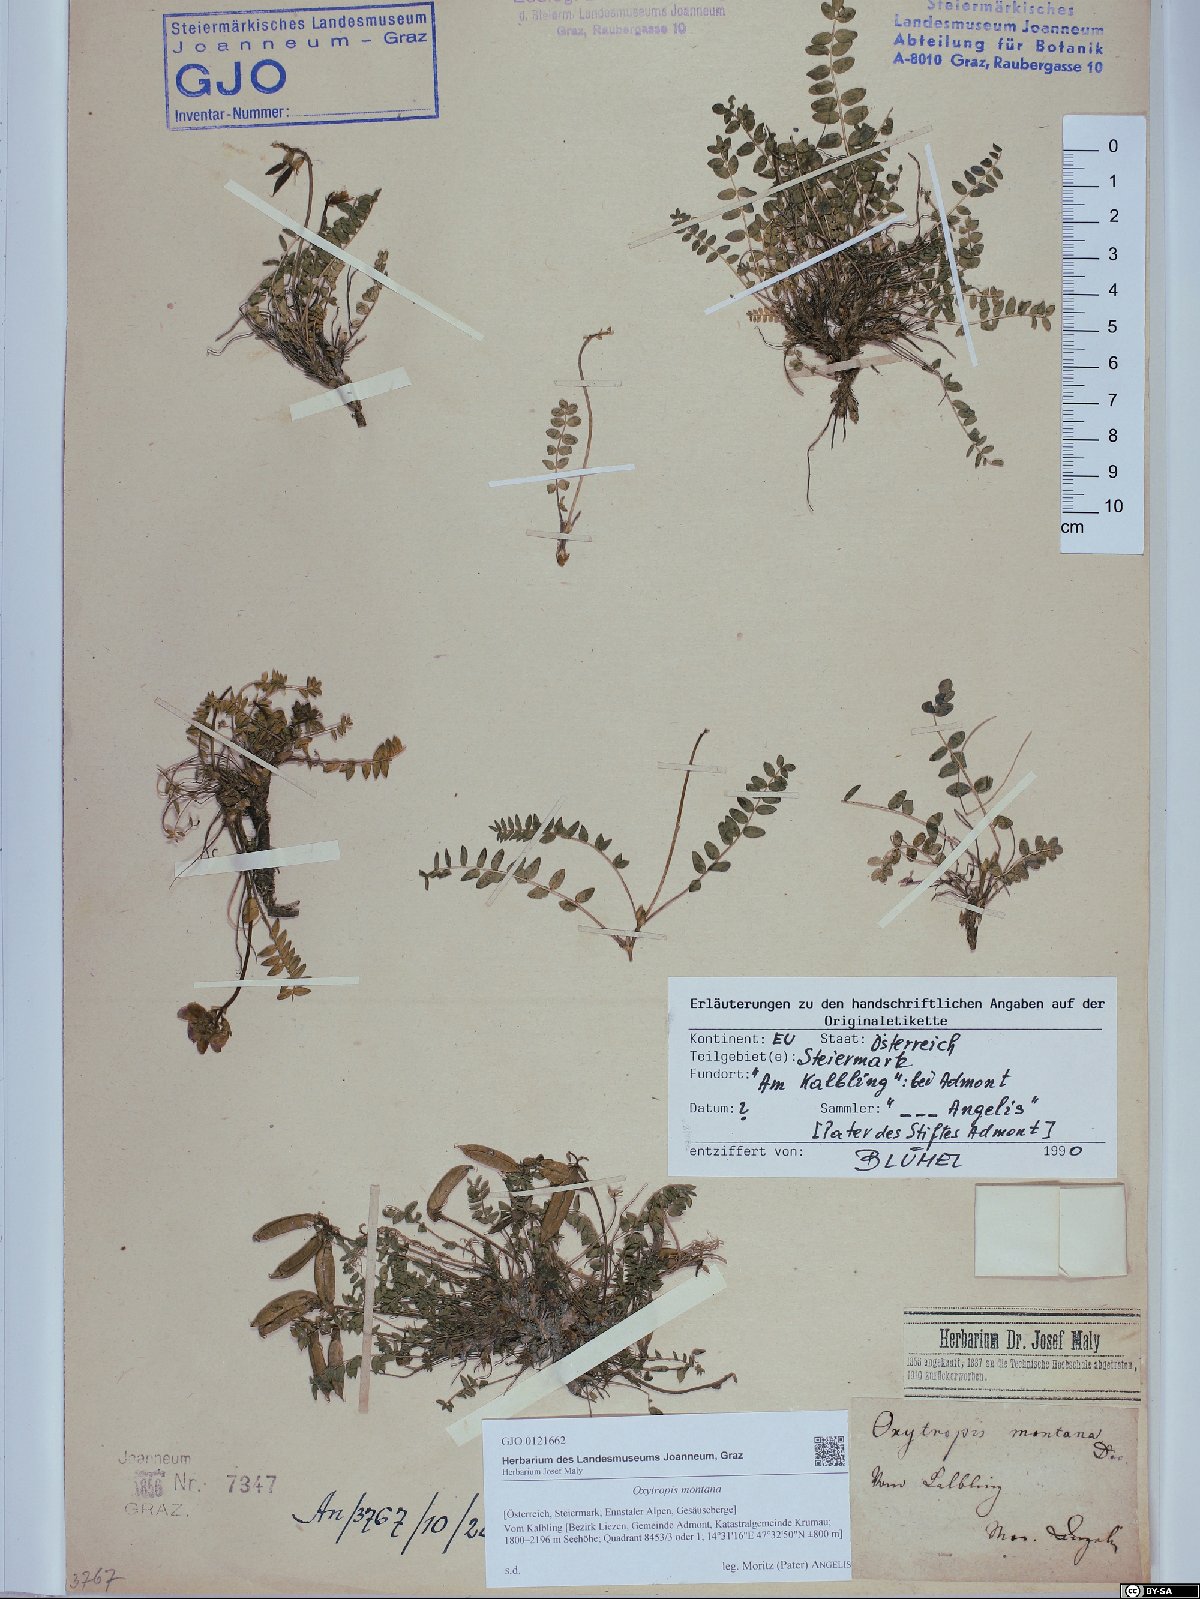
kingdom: Plantae
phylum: Tracheophyta
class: Magnoliopsida
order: Fabales
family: Fabaceae
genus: Oxytropis
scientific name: Oxytropis montana
